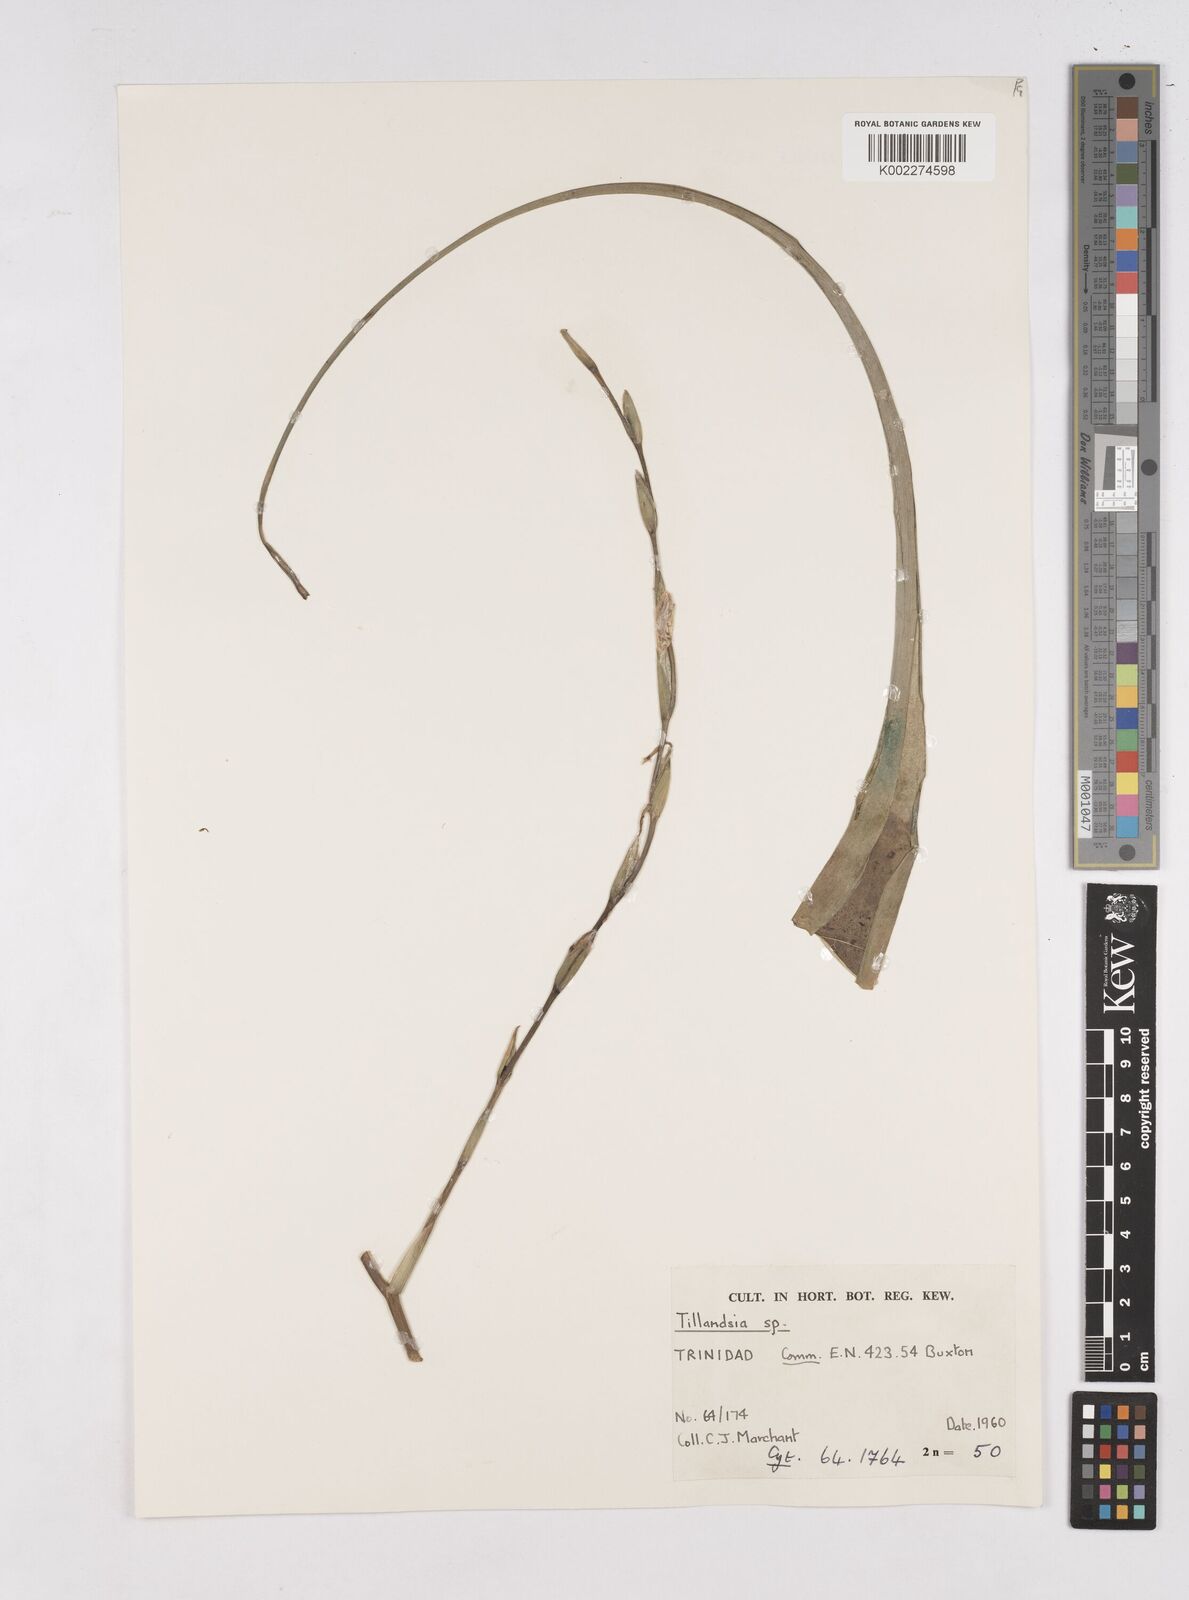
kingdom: Plantae
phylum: Tracheophyta
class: Liliopsida
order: Poales
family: Bromeliaceae
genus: Pitcairnia
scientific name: Pitcairnia
